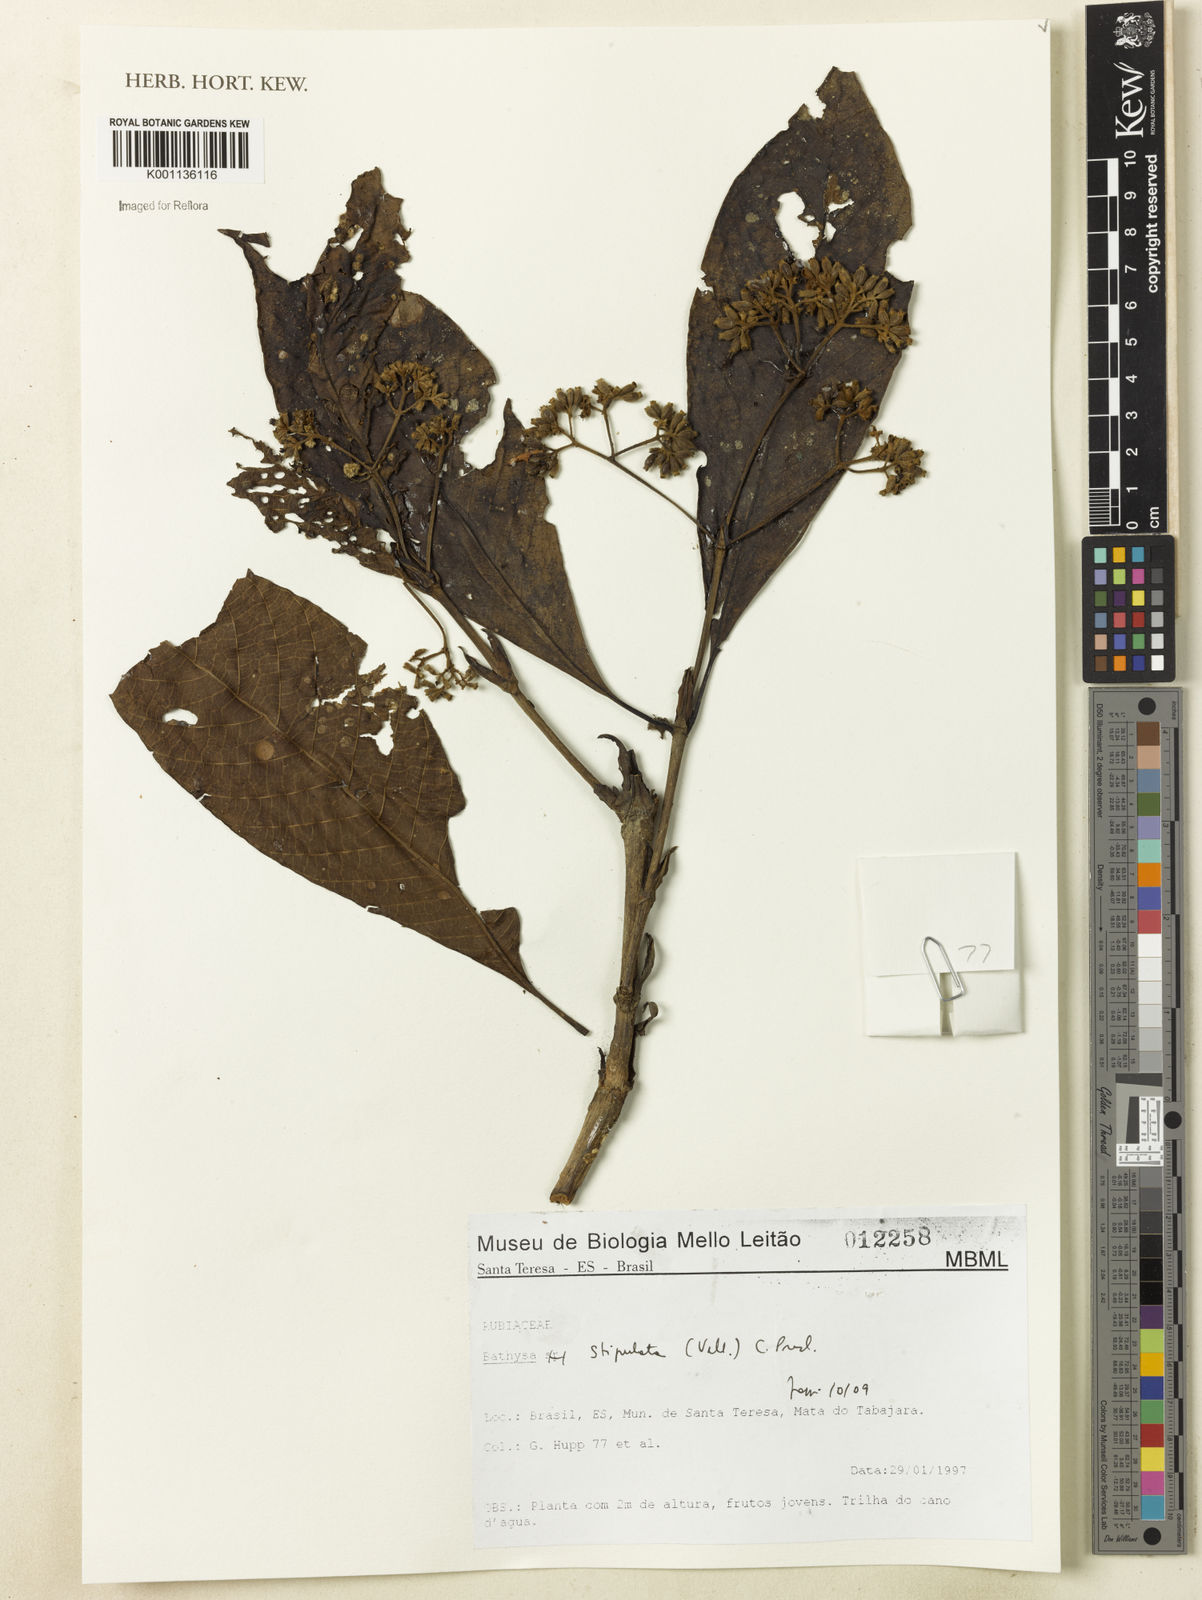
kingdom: Plantae
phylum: Tracheophyta
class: Magnoliopsida
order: Gentianales
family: Rubiaceae
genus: Bathysa
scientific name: Bathysa stipulata
